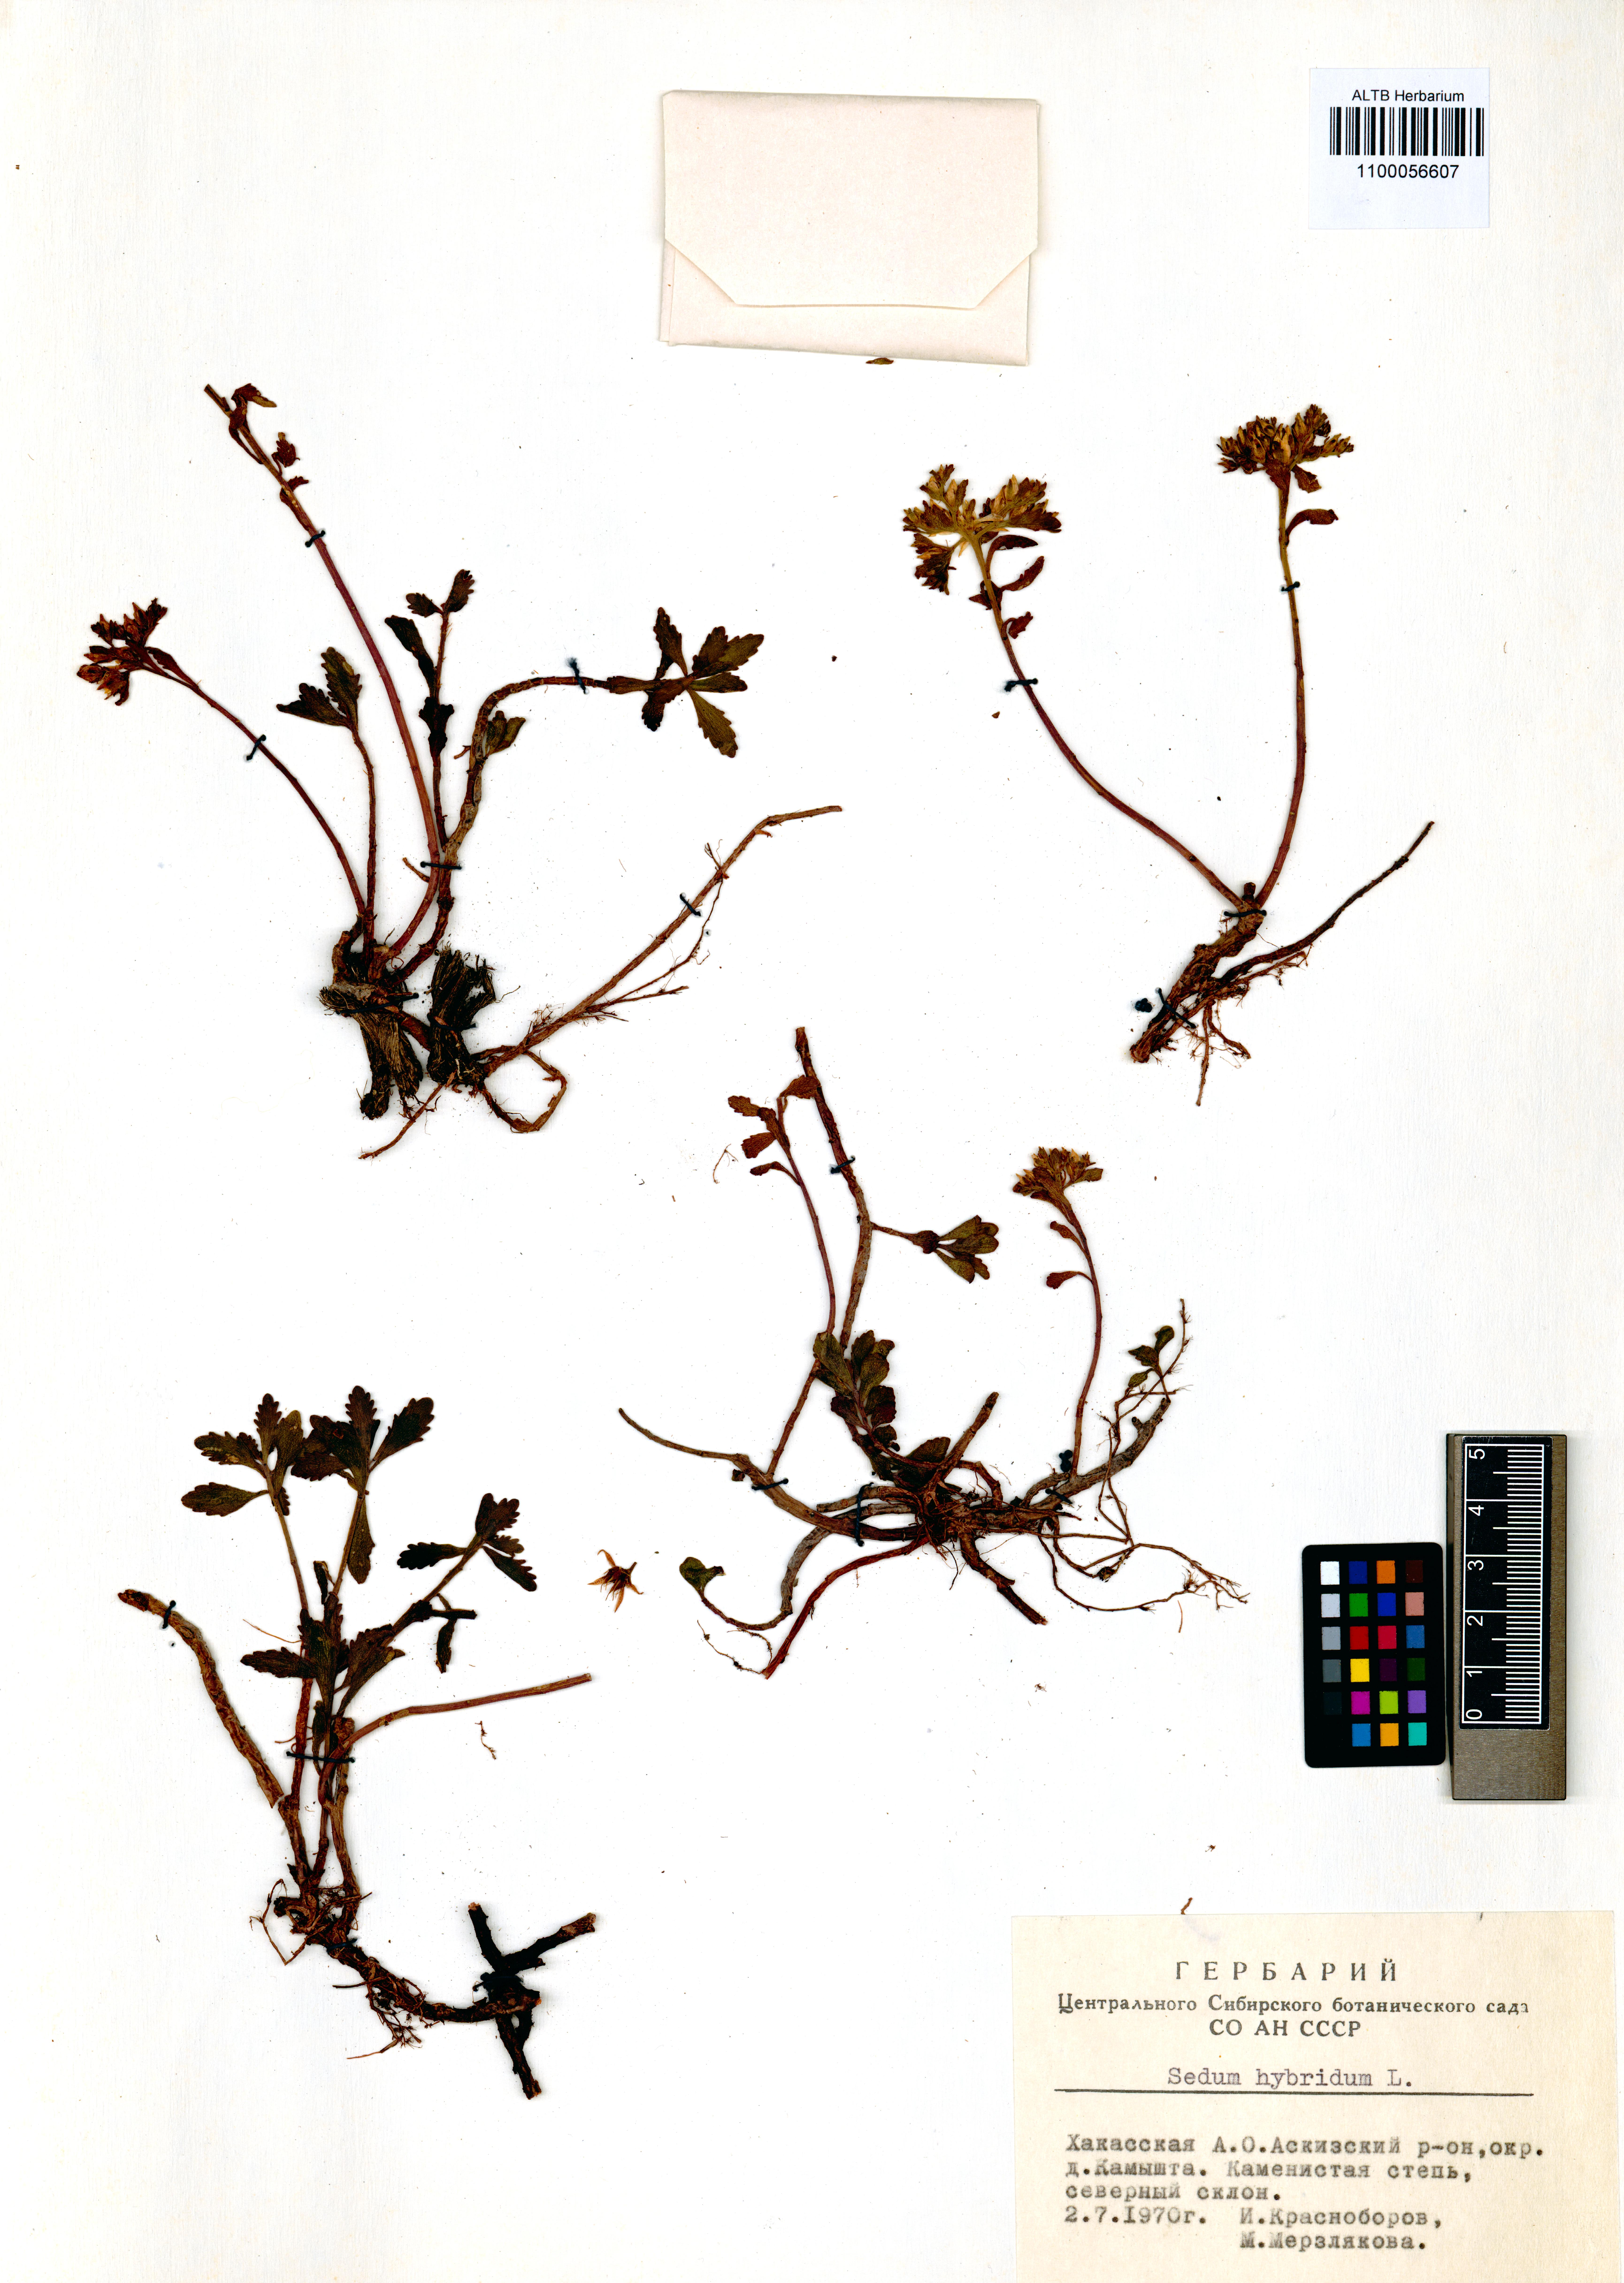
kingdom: Plantae
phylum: Tracheophyta
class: Magnoliopsida
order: Saxifragales
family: Crassulaceae
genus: Phedimus
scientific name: Phedimus hybridus
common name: Hybrid stonecrop
